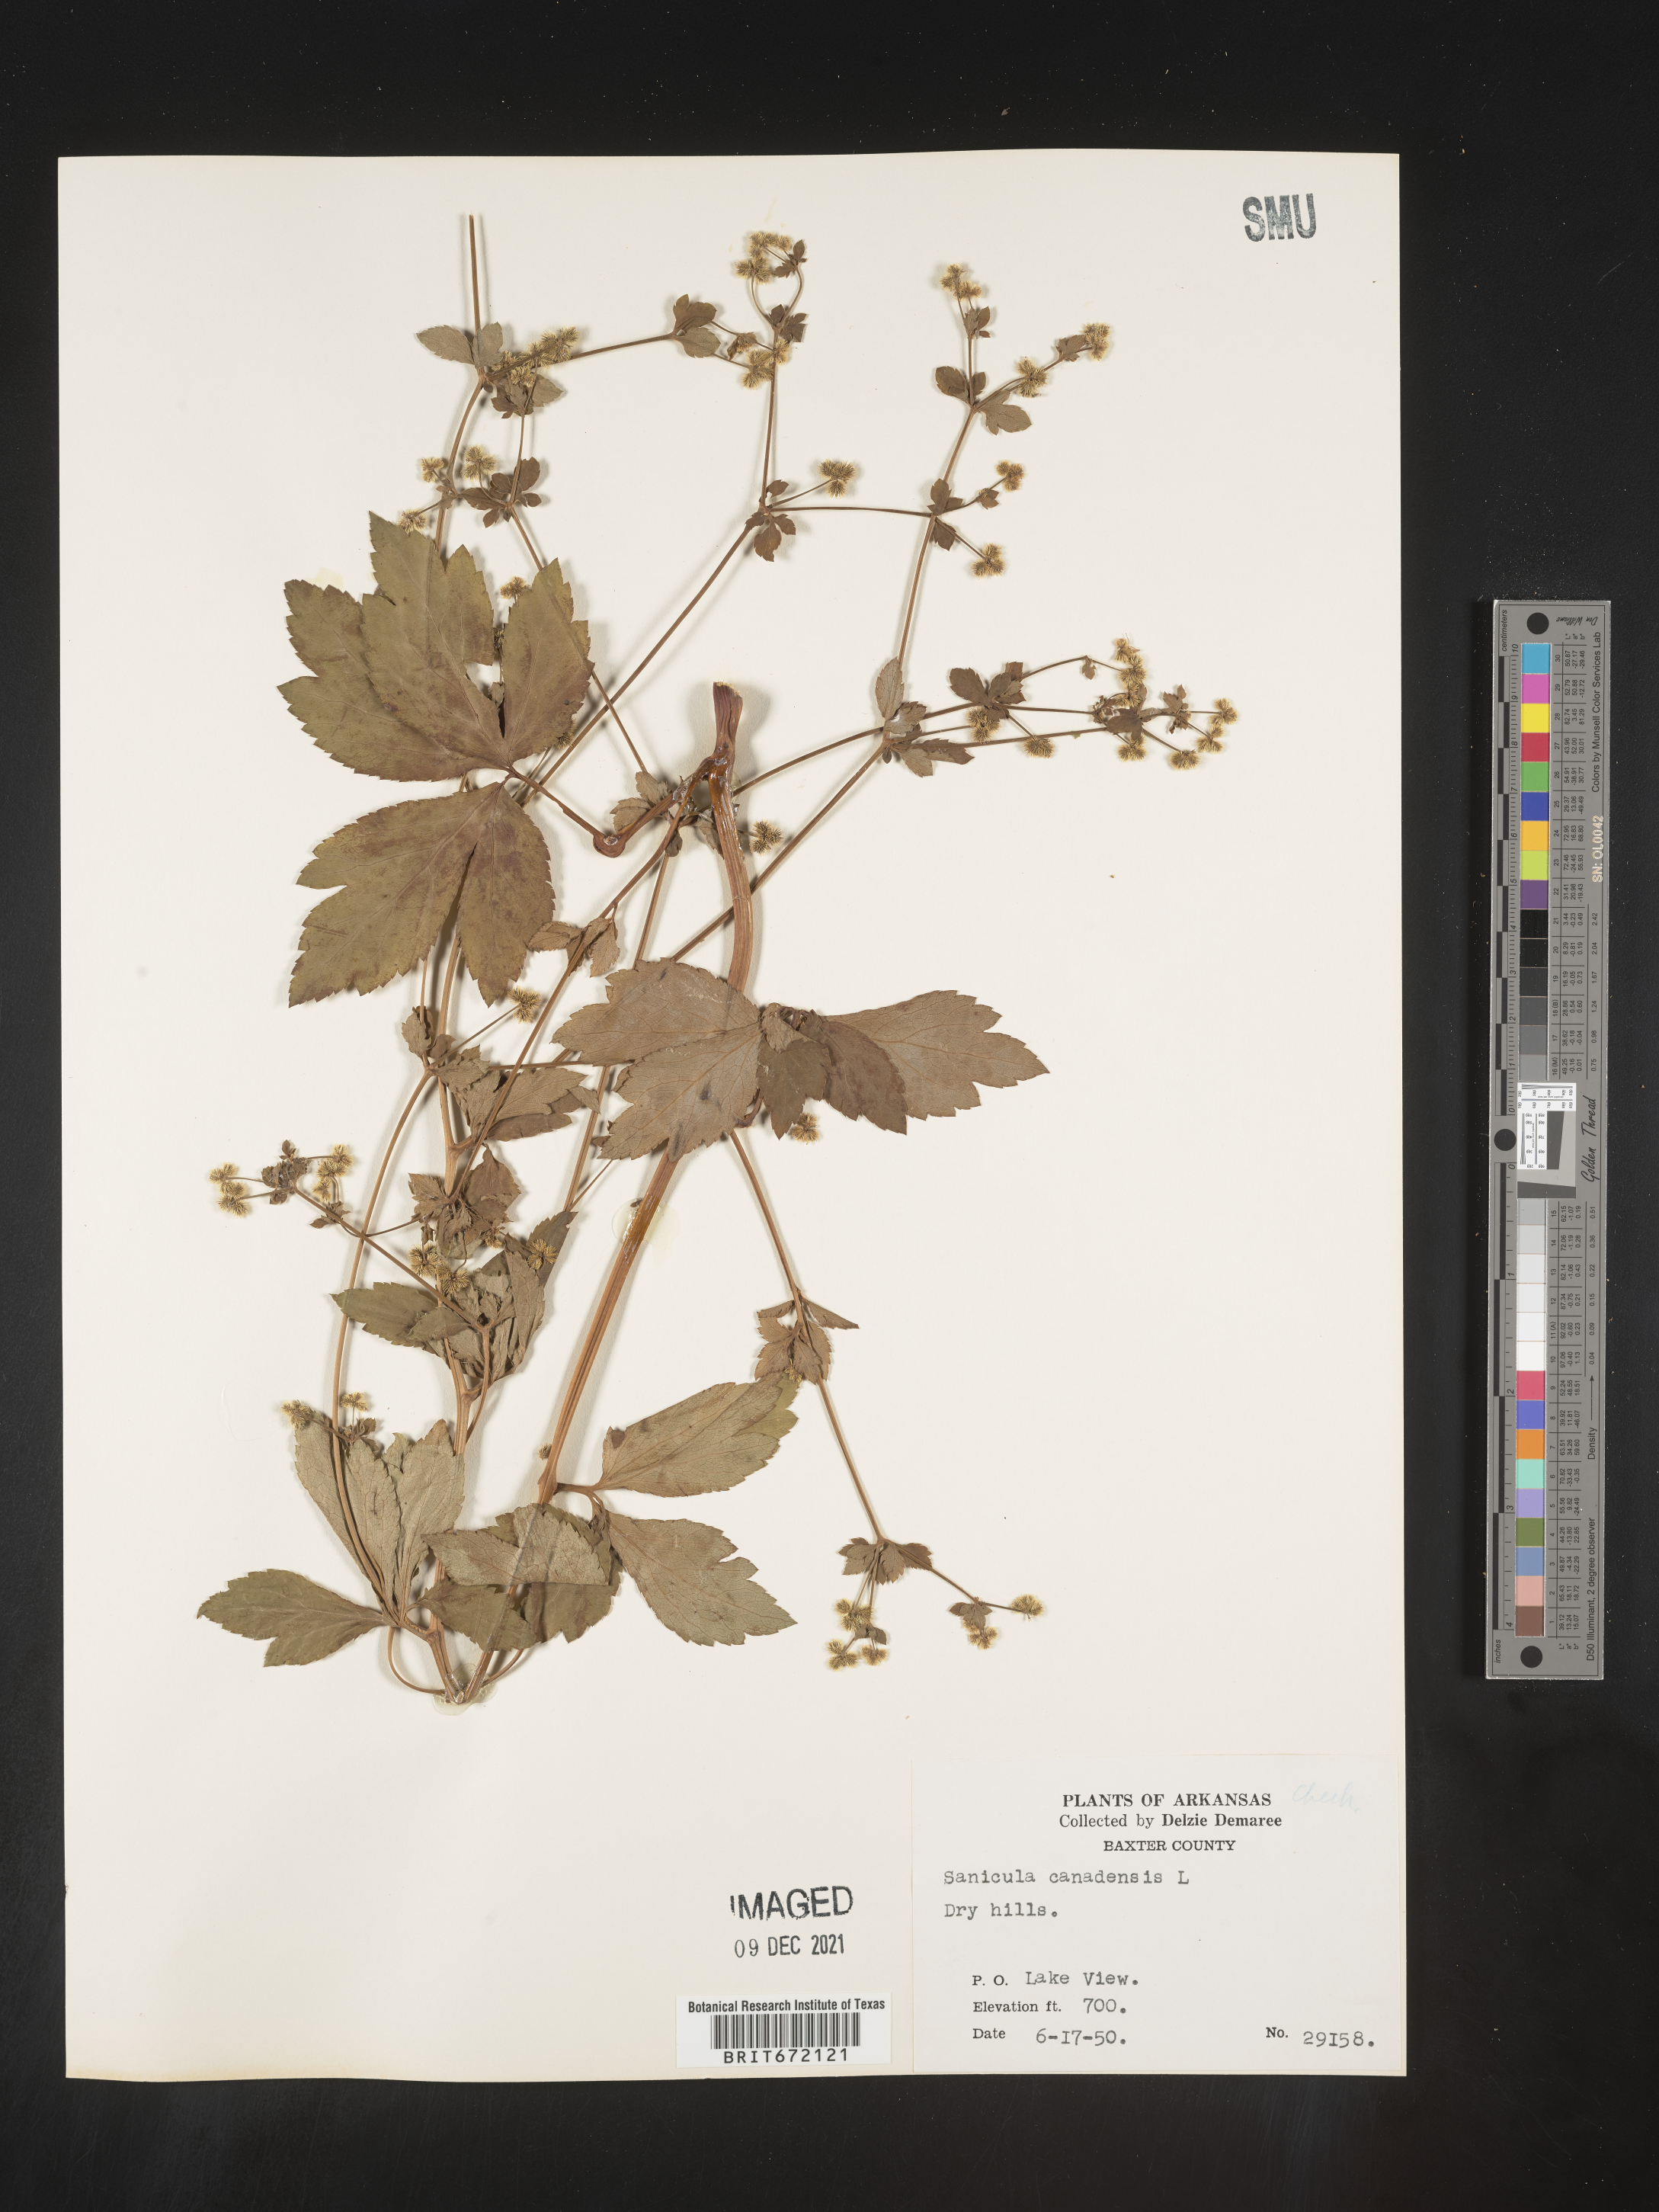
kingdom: Plantae
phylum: Tracheophyta
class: Magnoliopsida
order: Apiales
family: Apiaceae
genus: Sanicula
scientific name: Sanicula canadensis
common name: Canada sanicle
